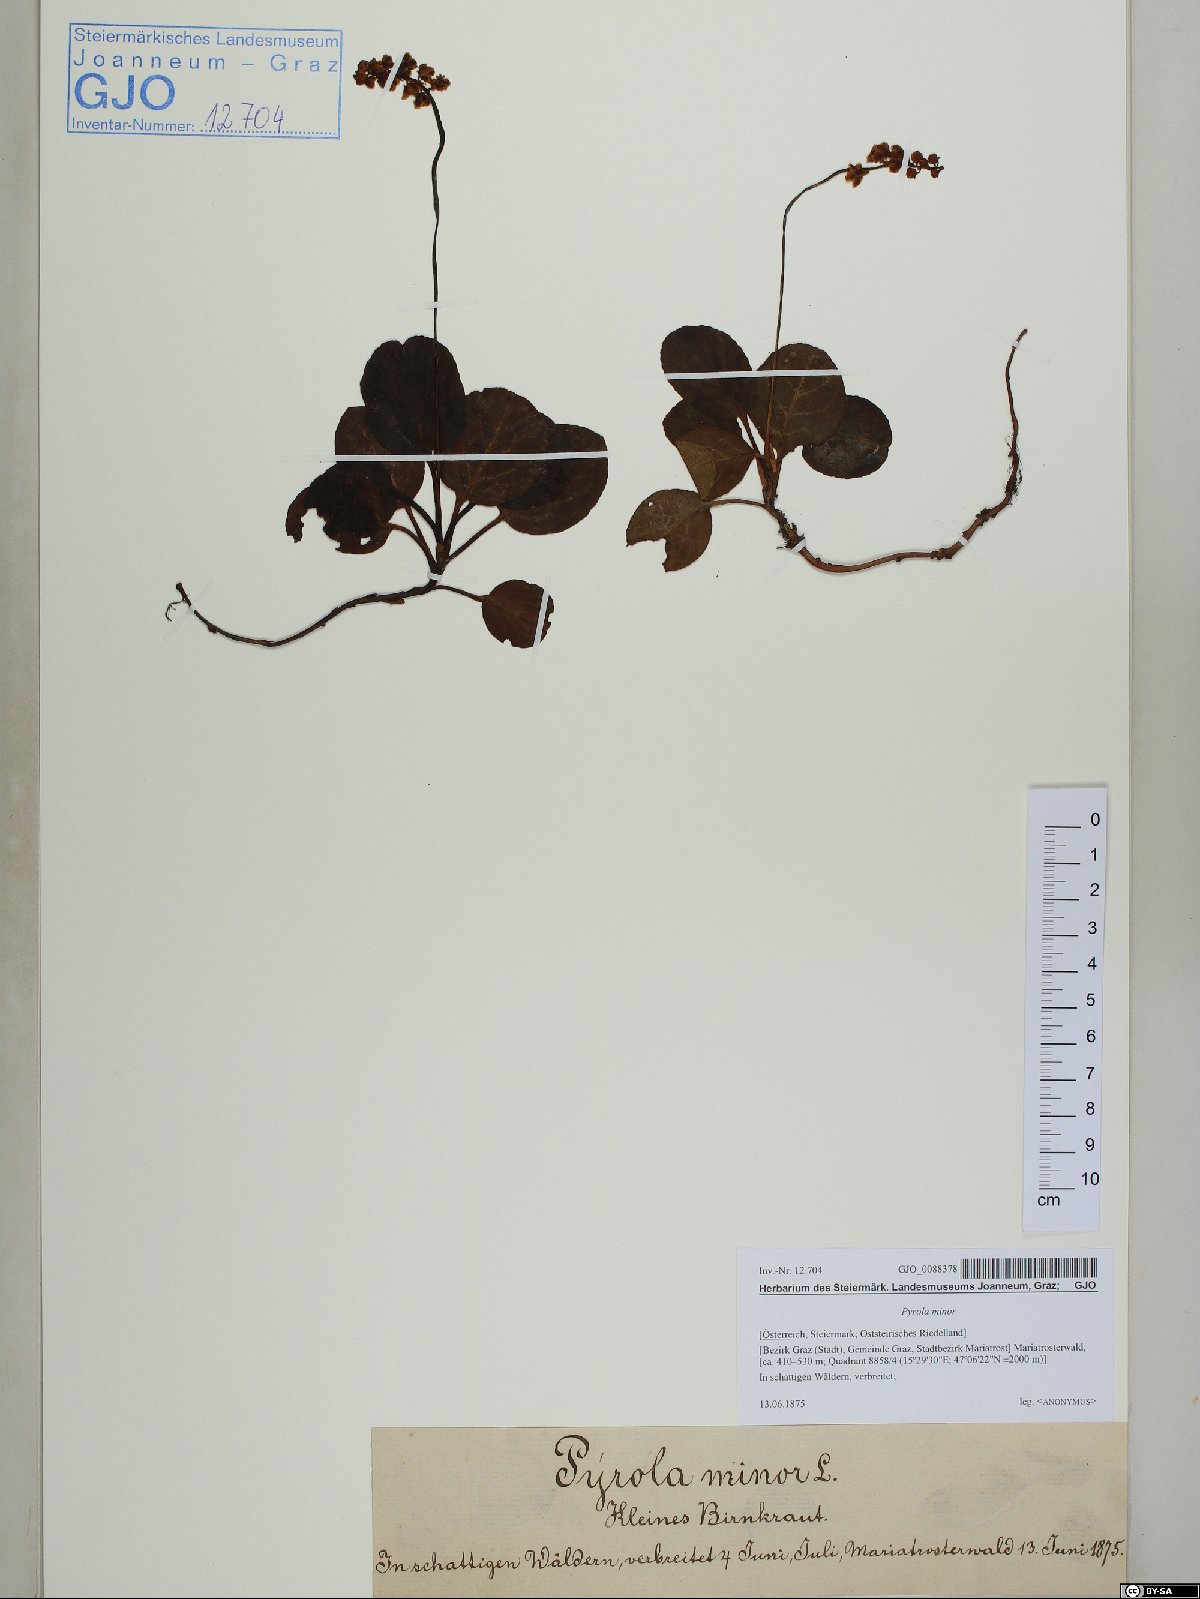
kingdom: Plantae
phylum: Tracheophyta
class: Magnoliopsida
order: Ericales
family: Ericaceae
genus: Pyrola
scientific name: Pyrola minor
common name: Common wintergreen
